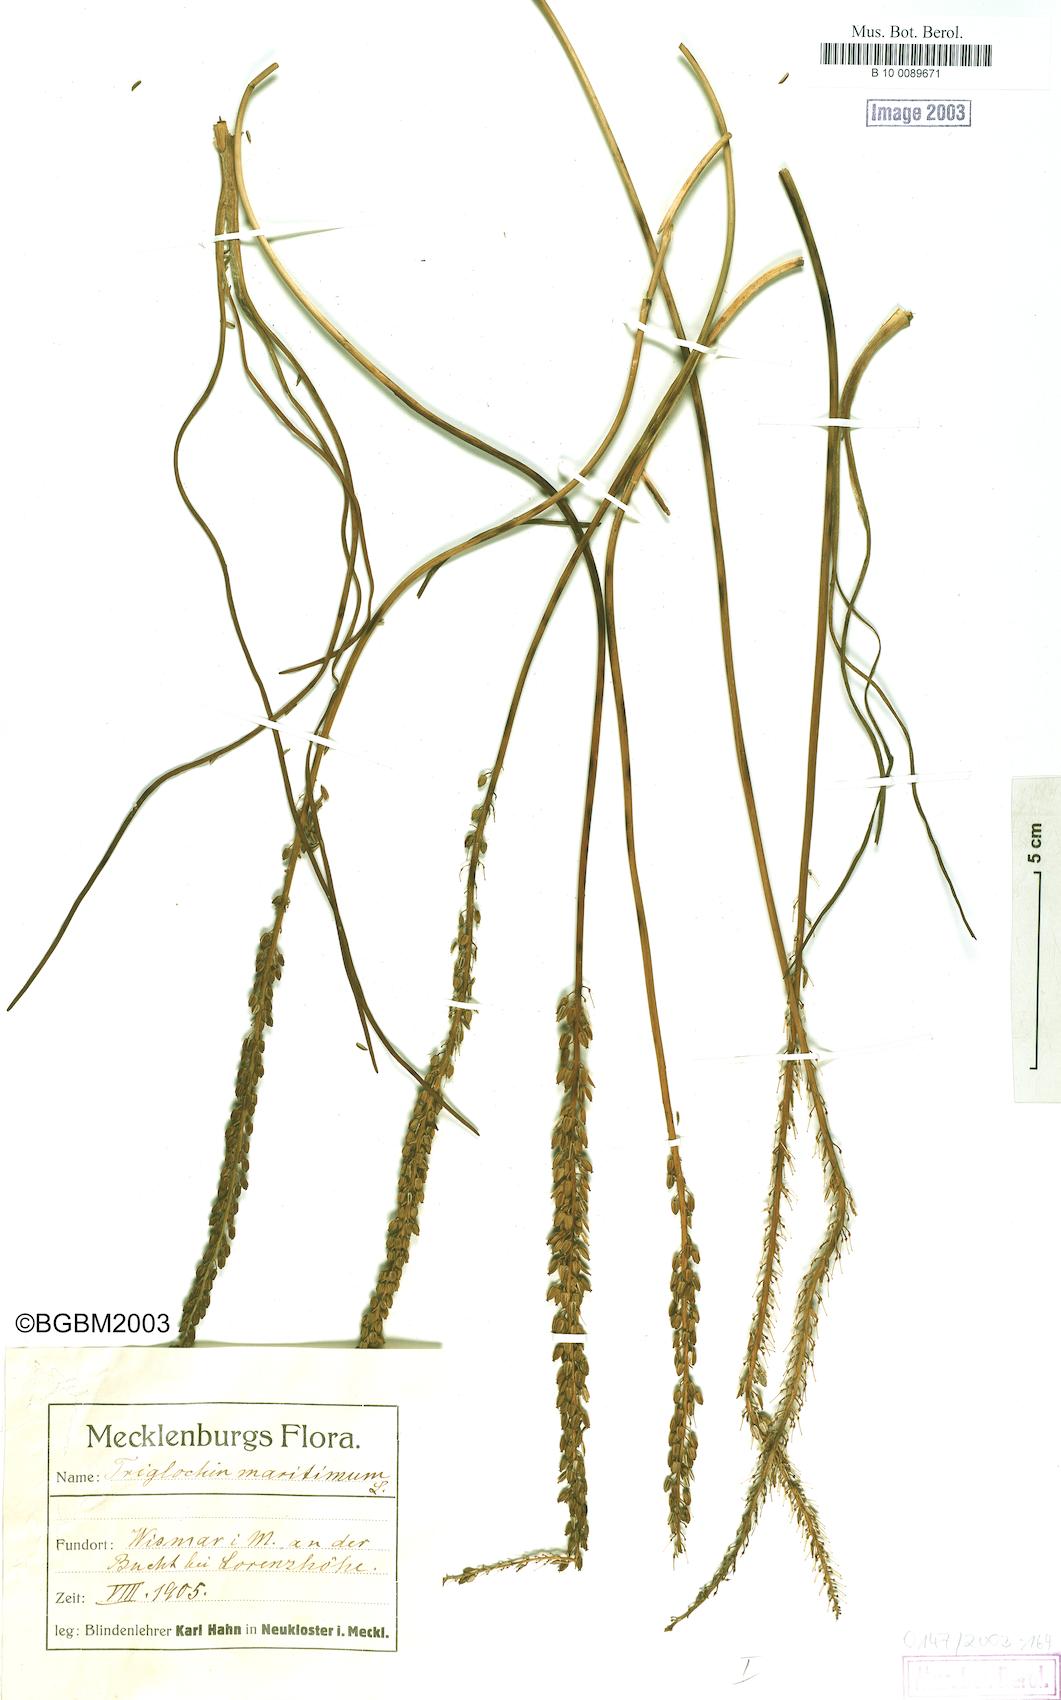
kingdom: Plantae
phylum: Tracheophyta
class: Liliopsida
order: Alismatales
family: Juncaginaceae
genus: Triglochin
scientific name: Triglochin maritima
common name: Sea arrowgrass
